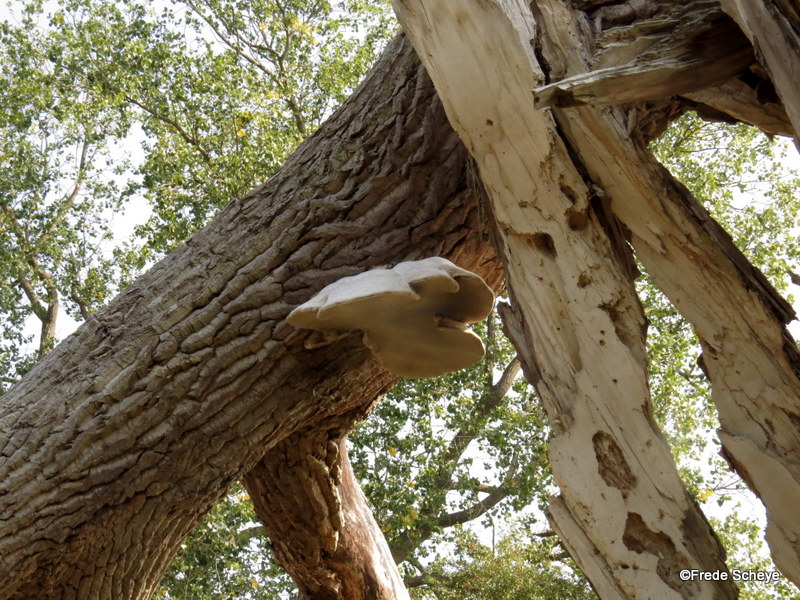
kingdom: Fungi
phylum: Basidiomycota
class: Agaricomycetes
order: Polyporales
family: Polyporaceae
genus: Fomes
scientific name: Fomes fomentarius
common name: tøndersvamp
